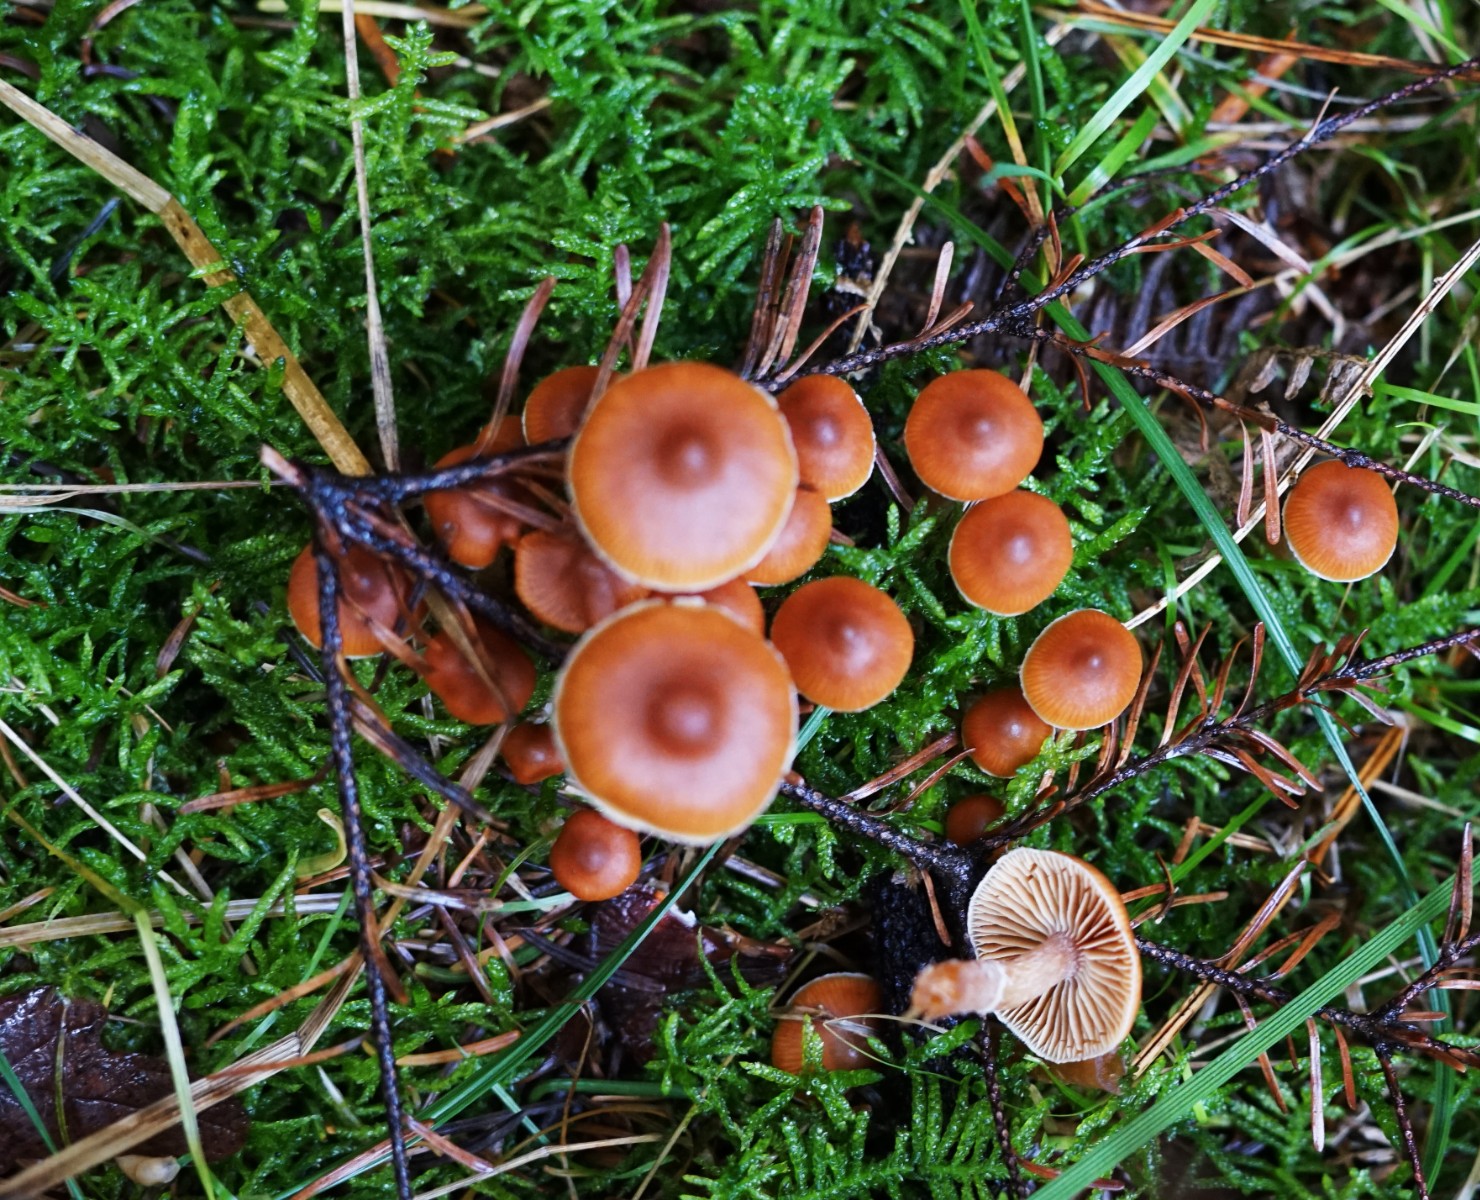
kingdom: Fungi
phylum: Basidiomycota
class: Agaricomycetes
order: Agaricales
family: Cortinariaceae
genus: Cortinarius
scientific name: Cortinarius
